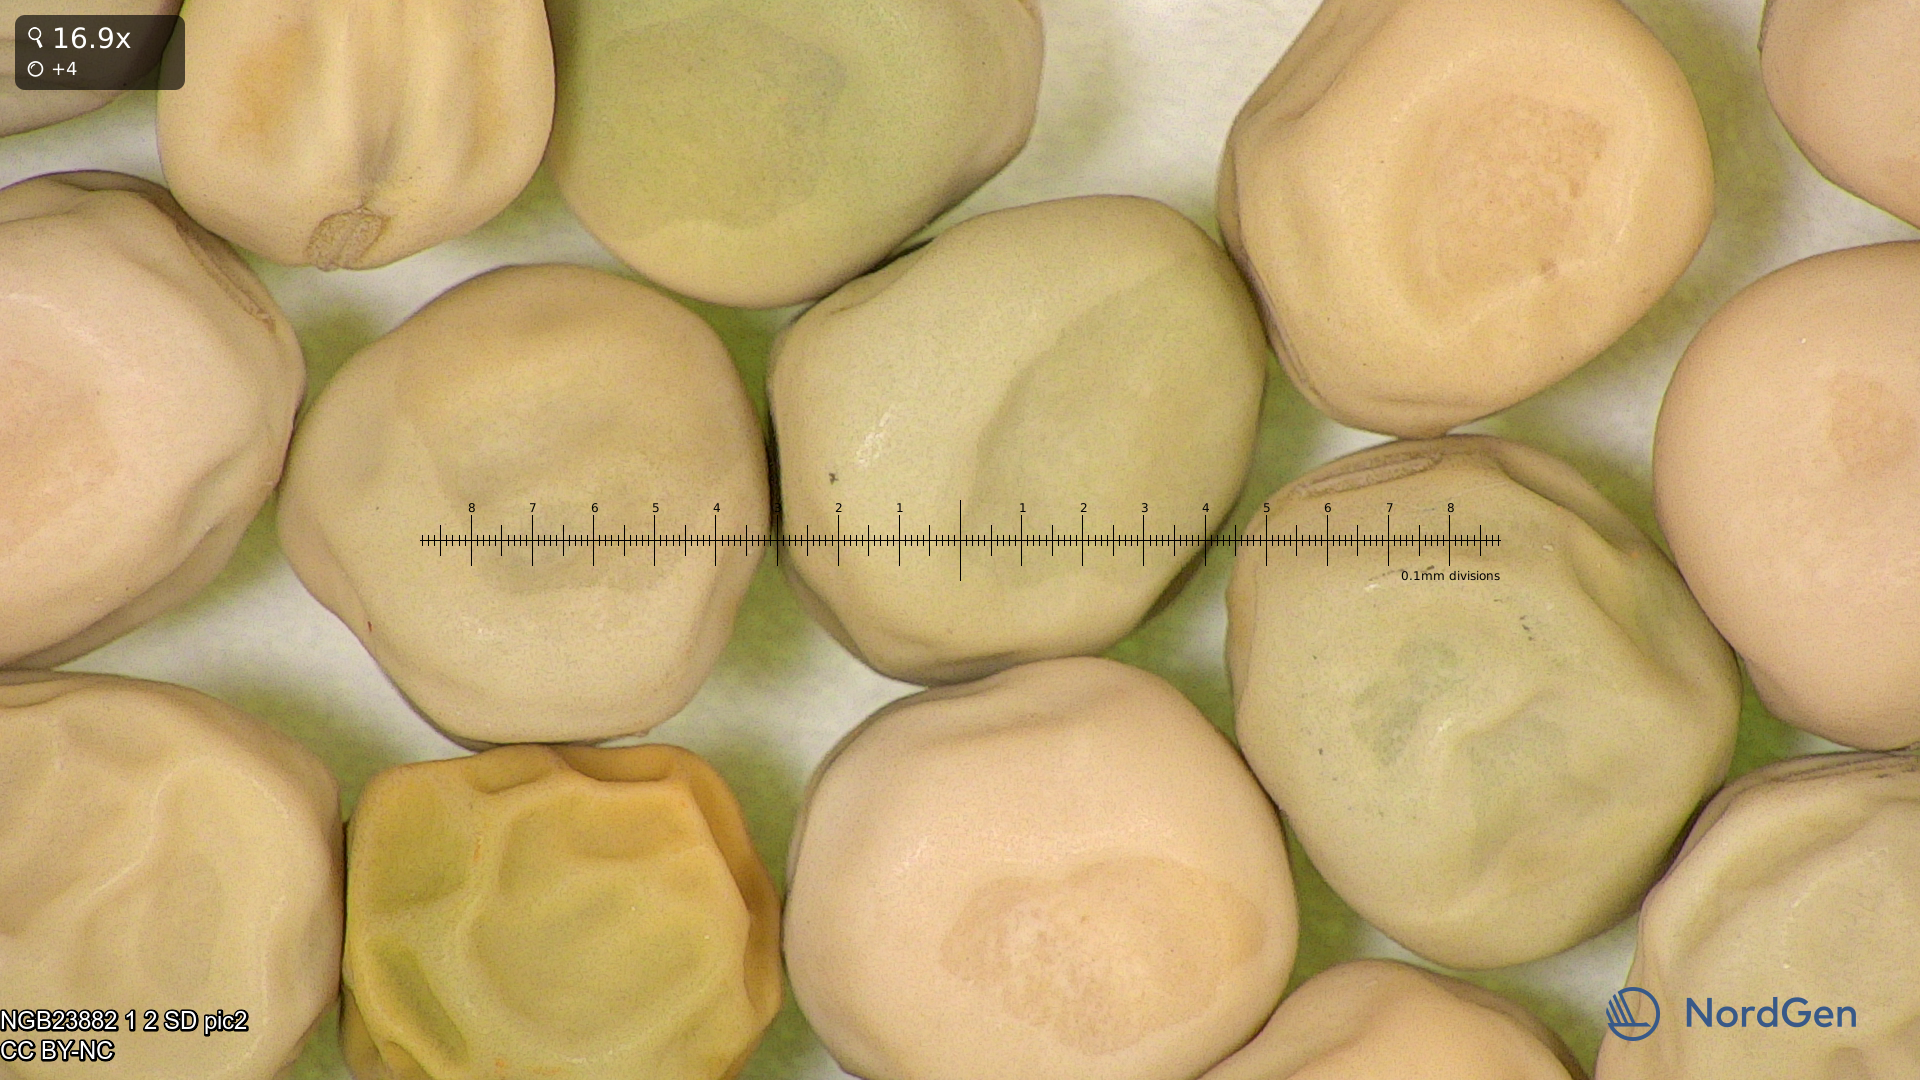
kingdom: Plantae
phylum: Tracheophyta
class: Magnoliopsida
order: Fabales
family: Fabaceae
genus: Lathyrus
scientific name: Lathyrus oleraceus
